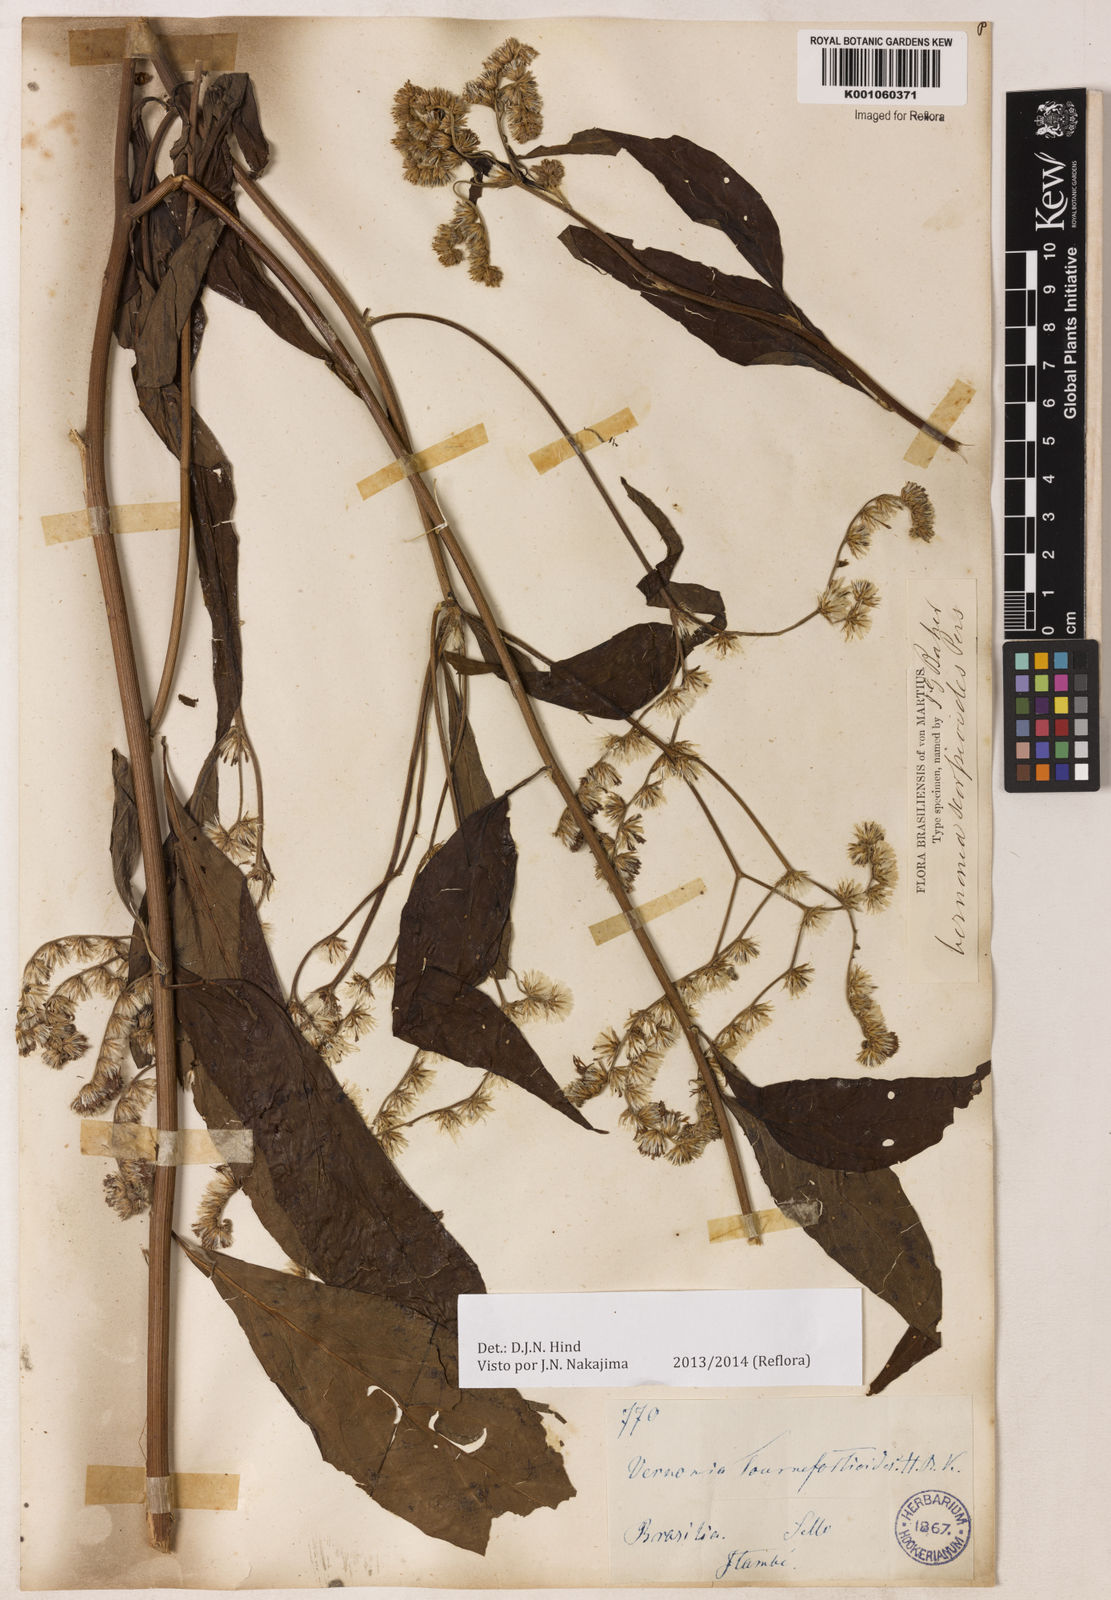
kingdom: Plantae
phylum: Tracheophyta
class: Magnoliopsida
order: Asterales
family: Asteraceae
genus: Cyrtocymura
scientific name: Cyrtocymura scorpioides
